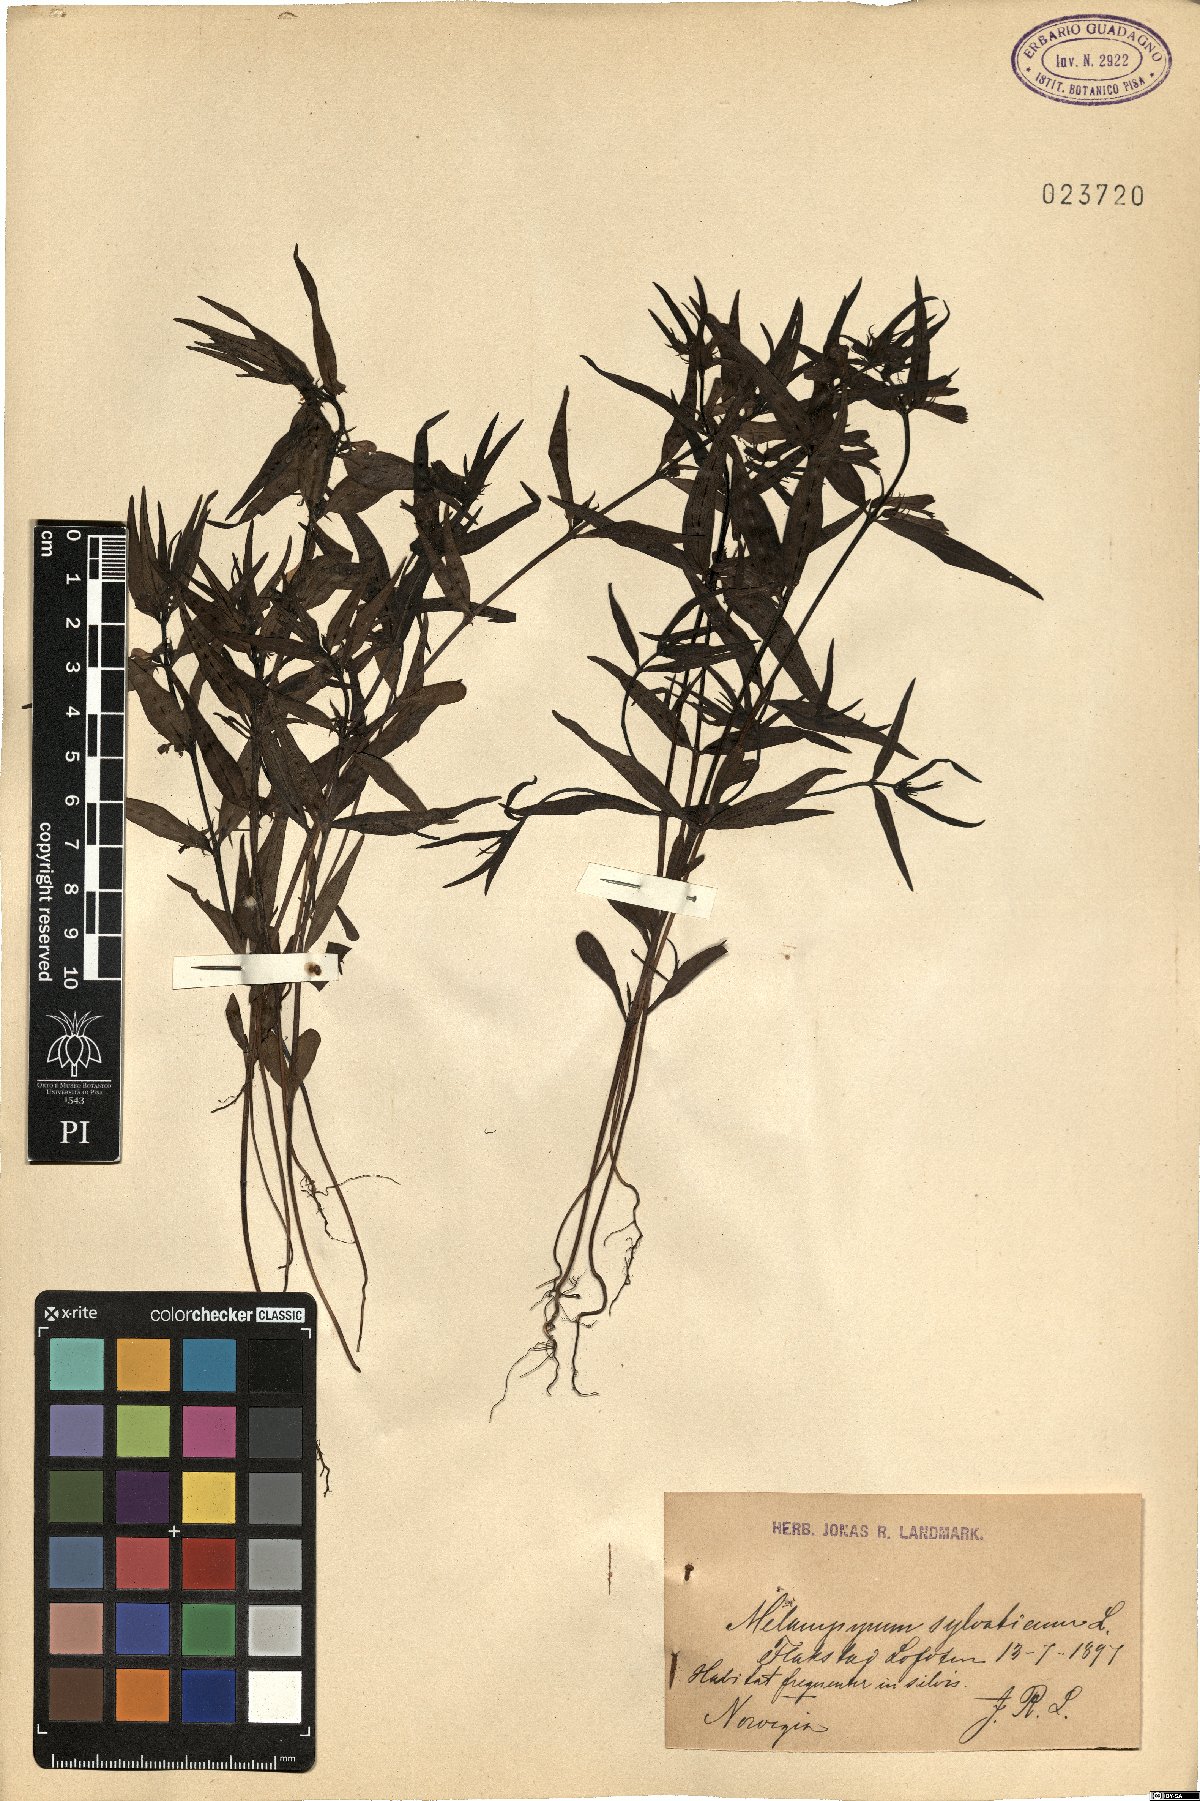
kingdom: Plantae
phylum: Tracheophyta
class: Magnoliopsida
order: Lamiales
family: Orobanchaceae
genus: Melampyrum
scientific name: Melampyrum sylvaticum
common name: Small cow-wheat
